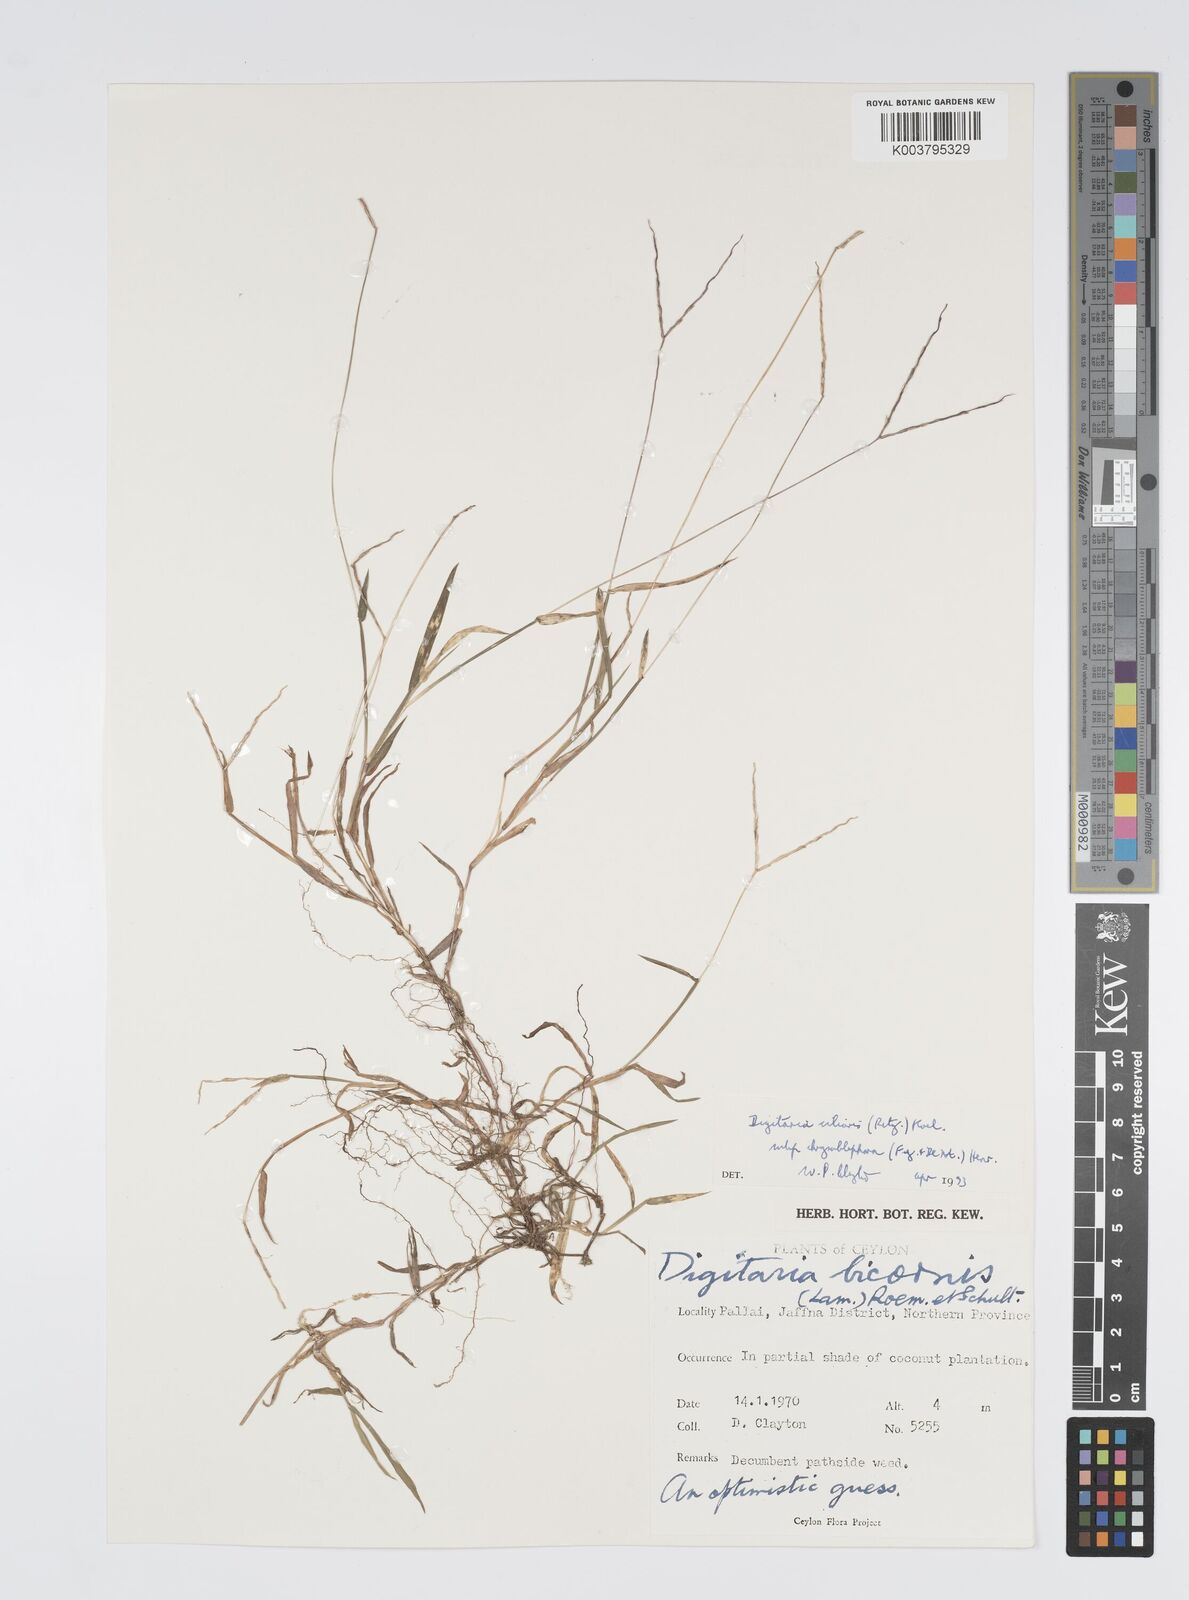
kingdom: Plantae
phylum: Tracheophyta
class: Liliopsida
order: Poales
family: Poaceae
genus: Digitaria
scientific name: Digitaria ciliaris
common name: Tropical finger-grass
